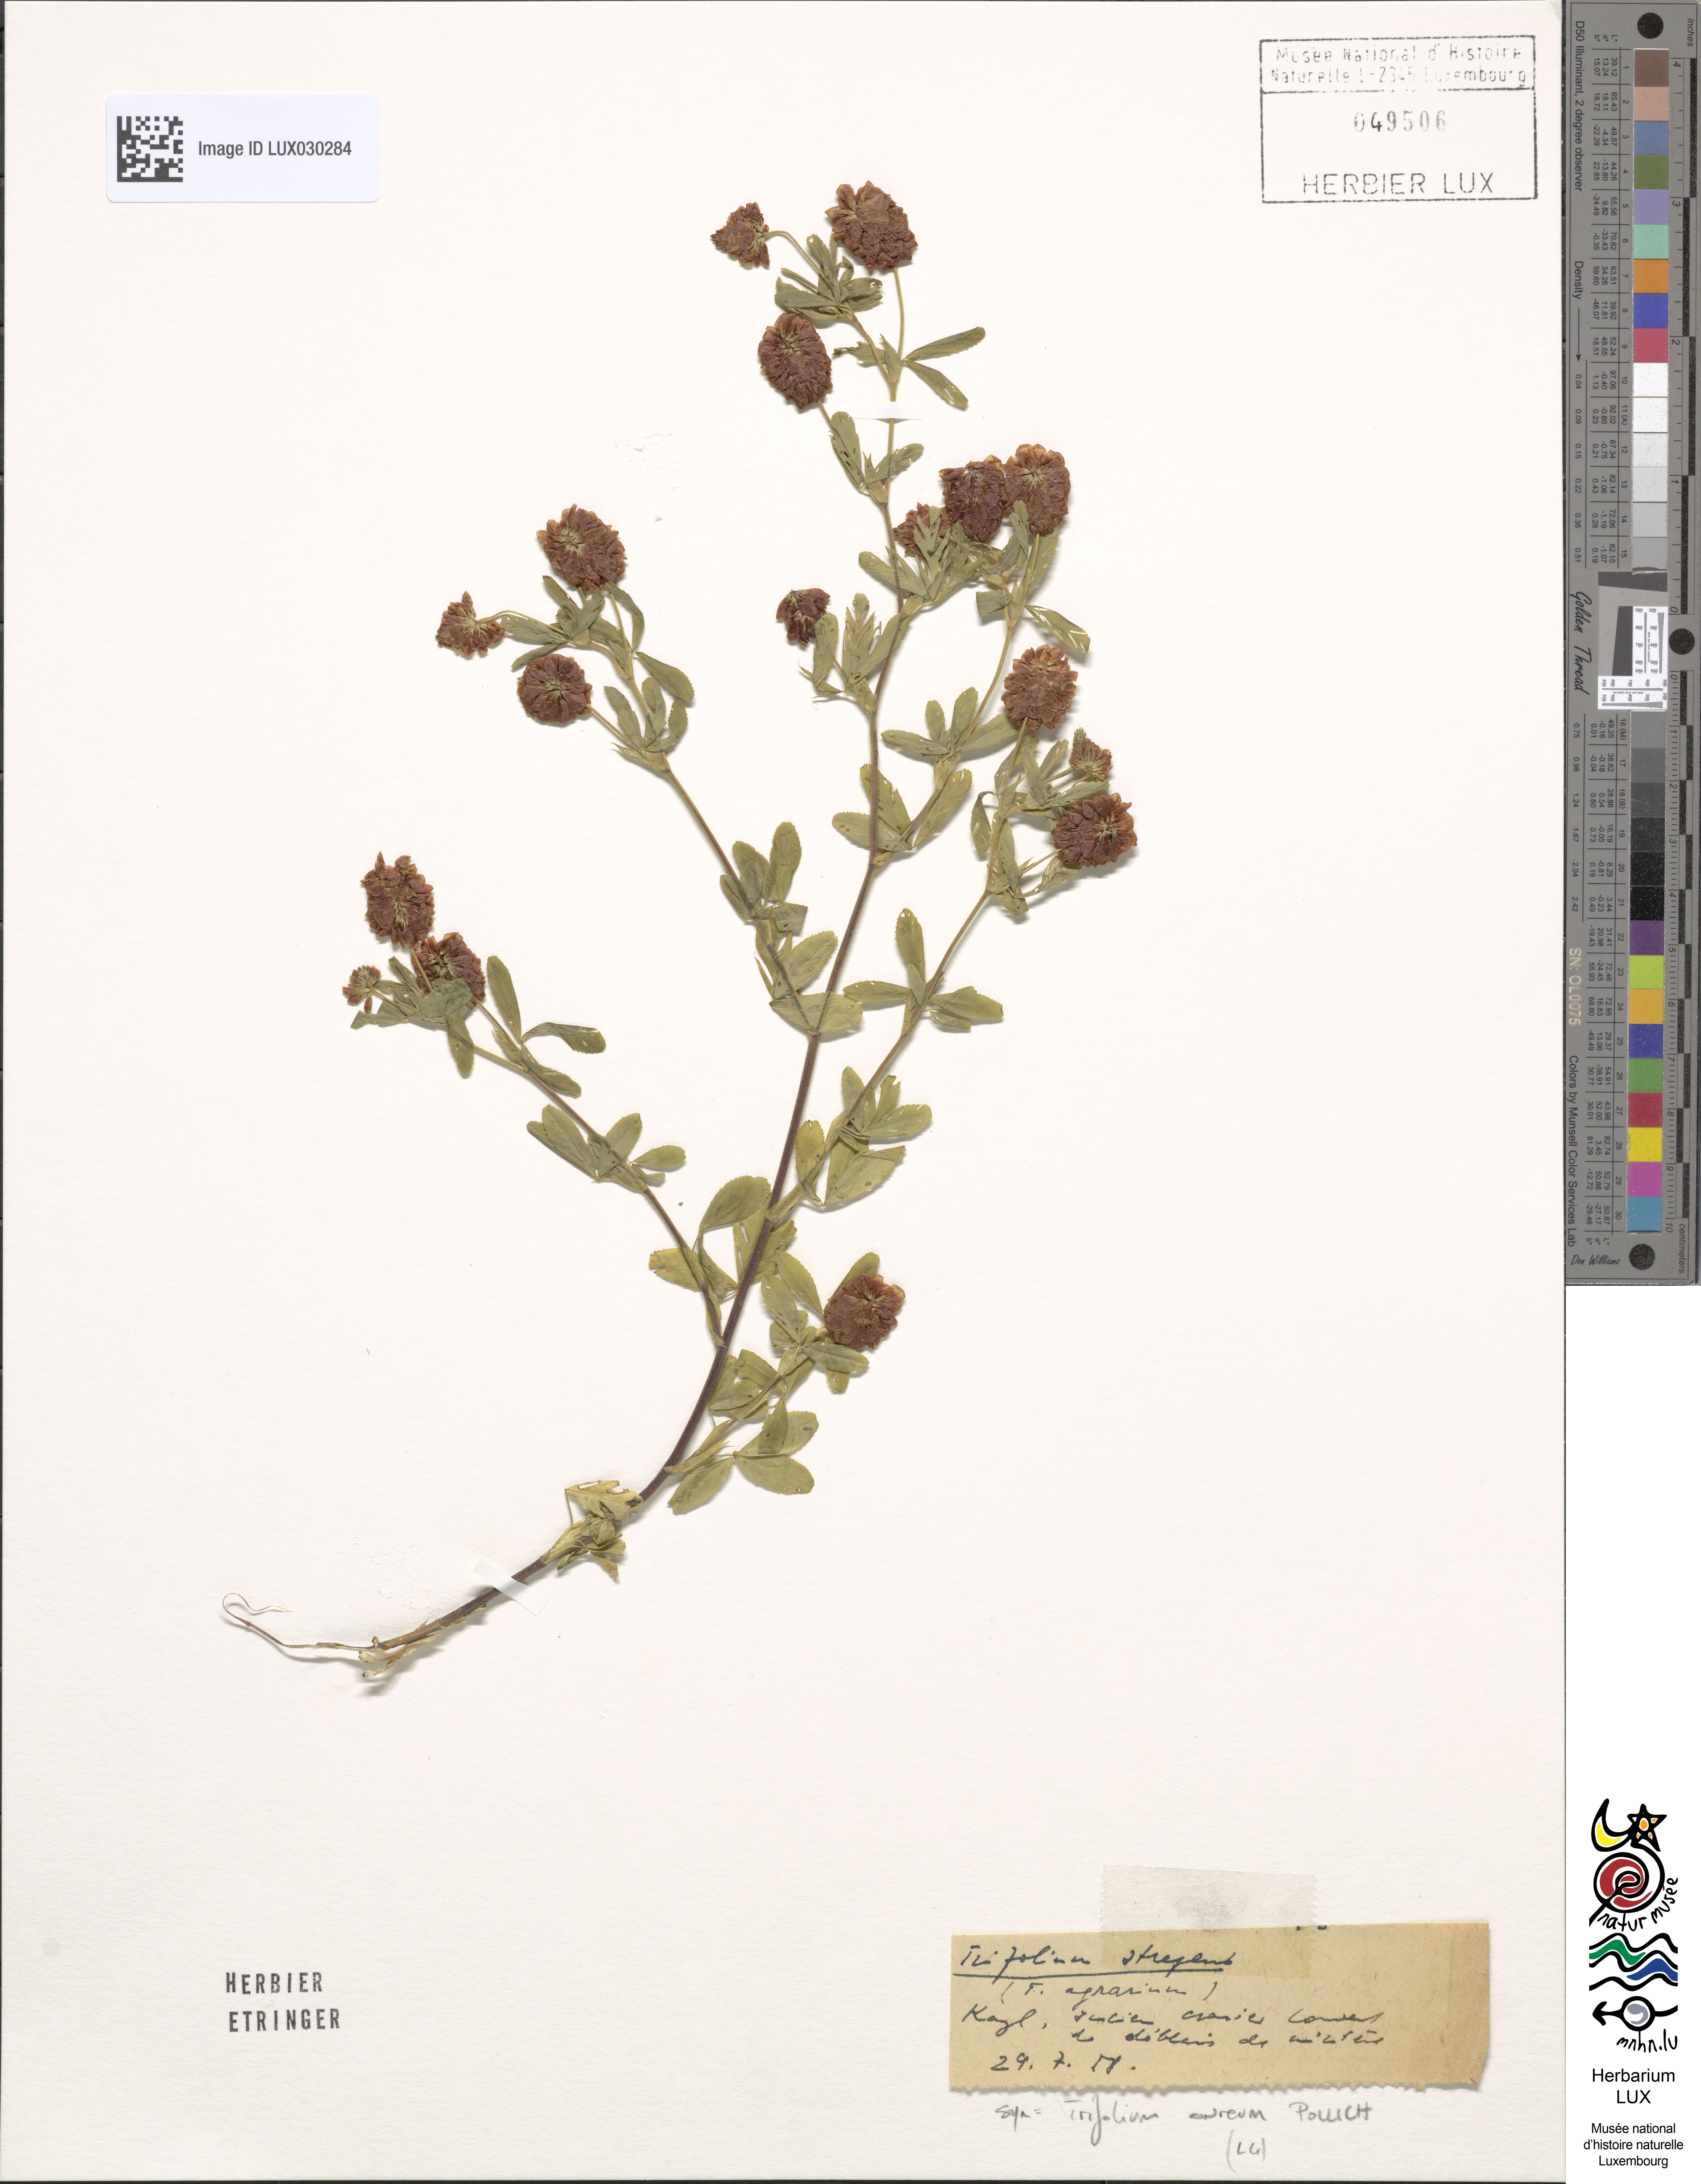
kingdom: Plantae
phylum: Tracheophyta
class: Magnoliopsida
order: Fabales
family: Fabaceae
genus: Trifolium
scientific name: Trifolium aureum
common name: Golden clover
